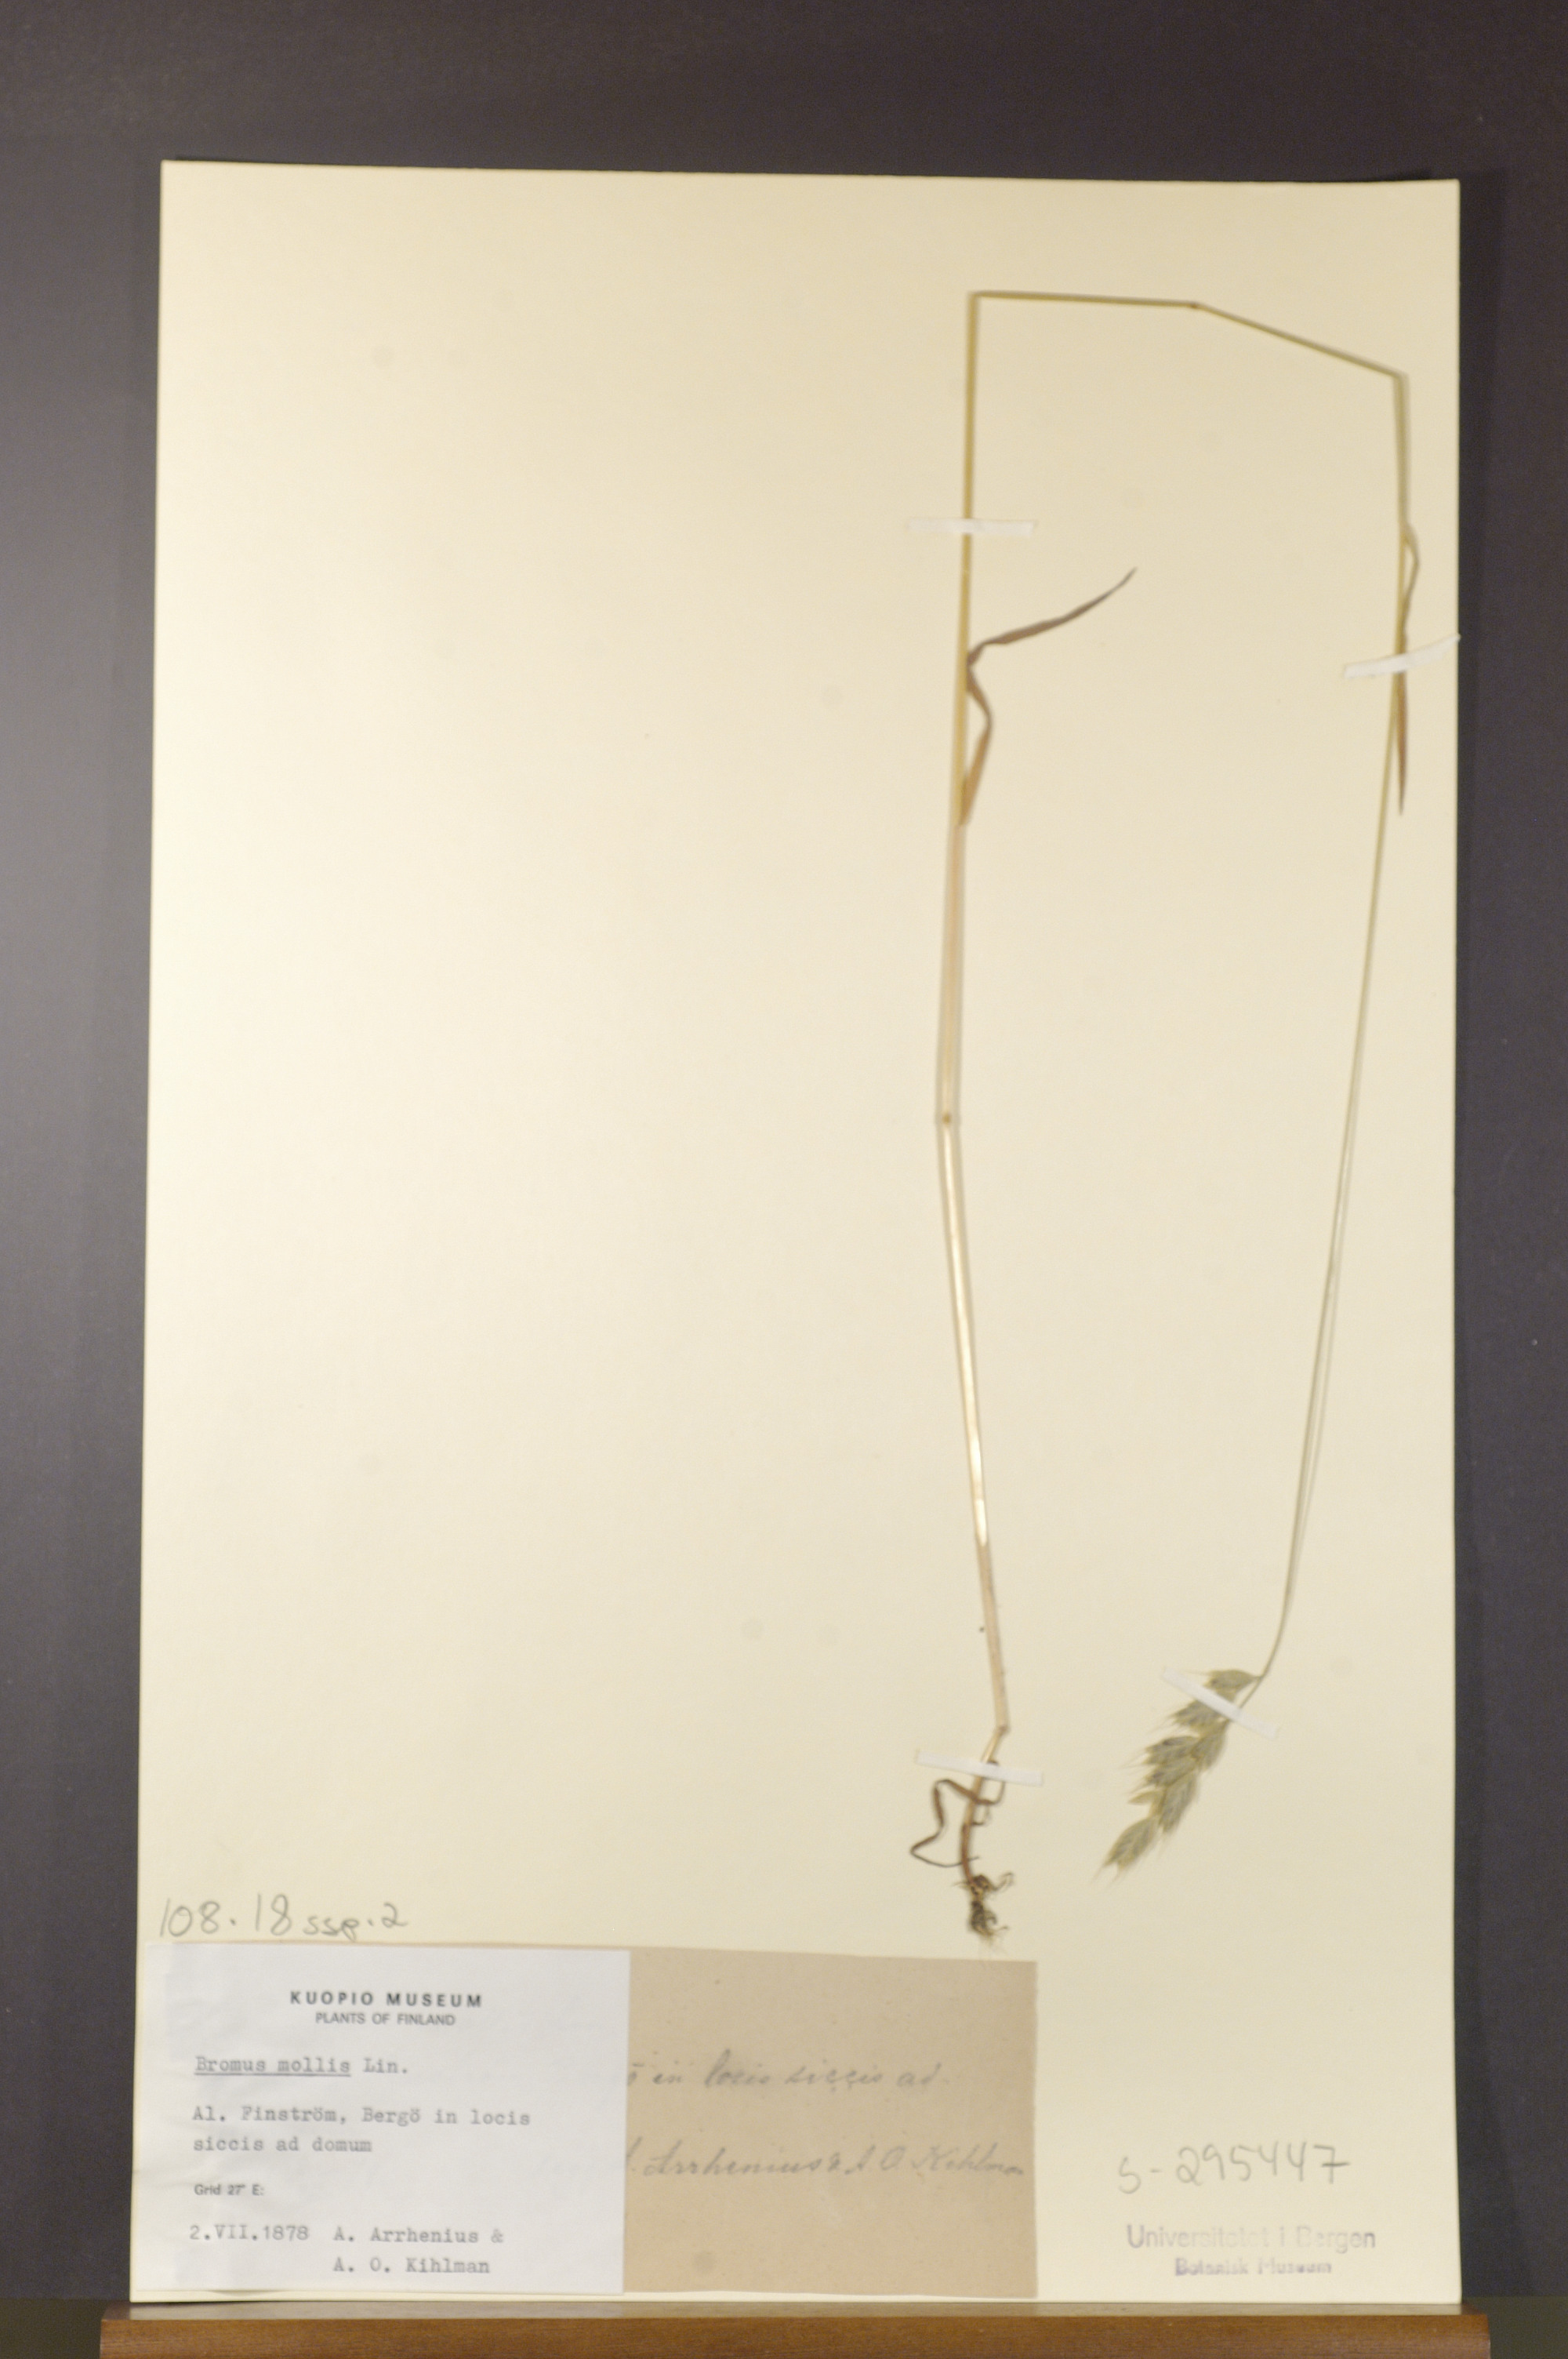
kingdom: Plantae
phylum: Tracheophyta
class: Liliopsida
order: Poales
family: Poaceae
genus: Bromus
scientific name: Bromus hordeaceus
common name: Soft brome
